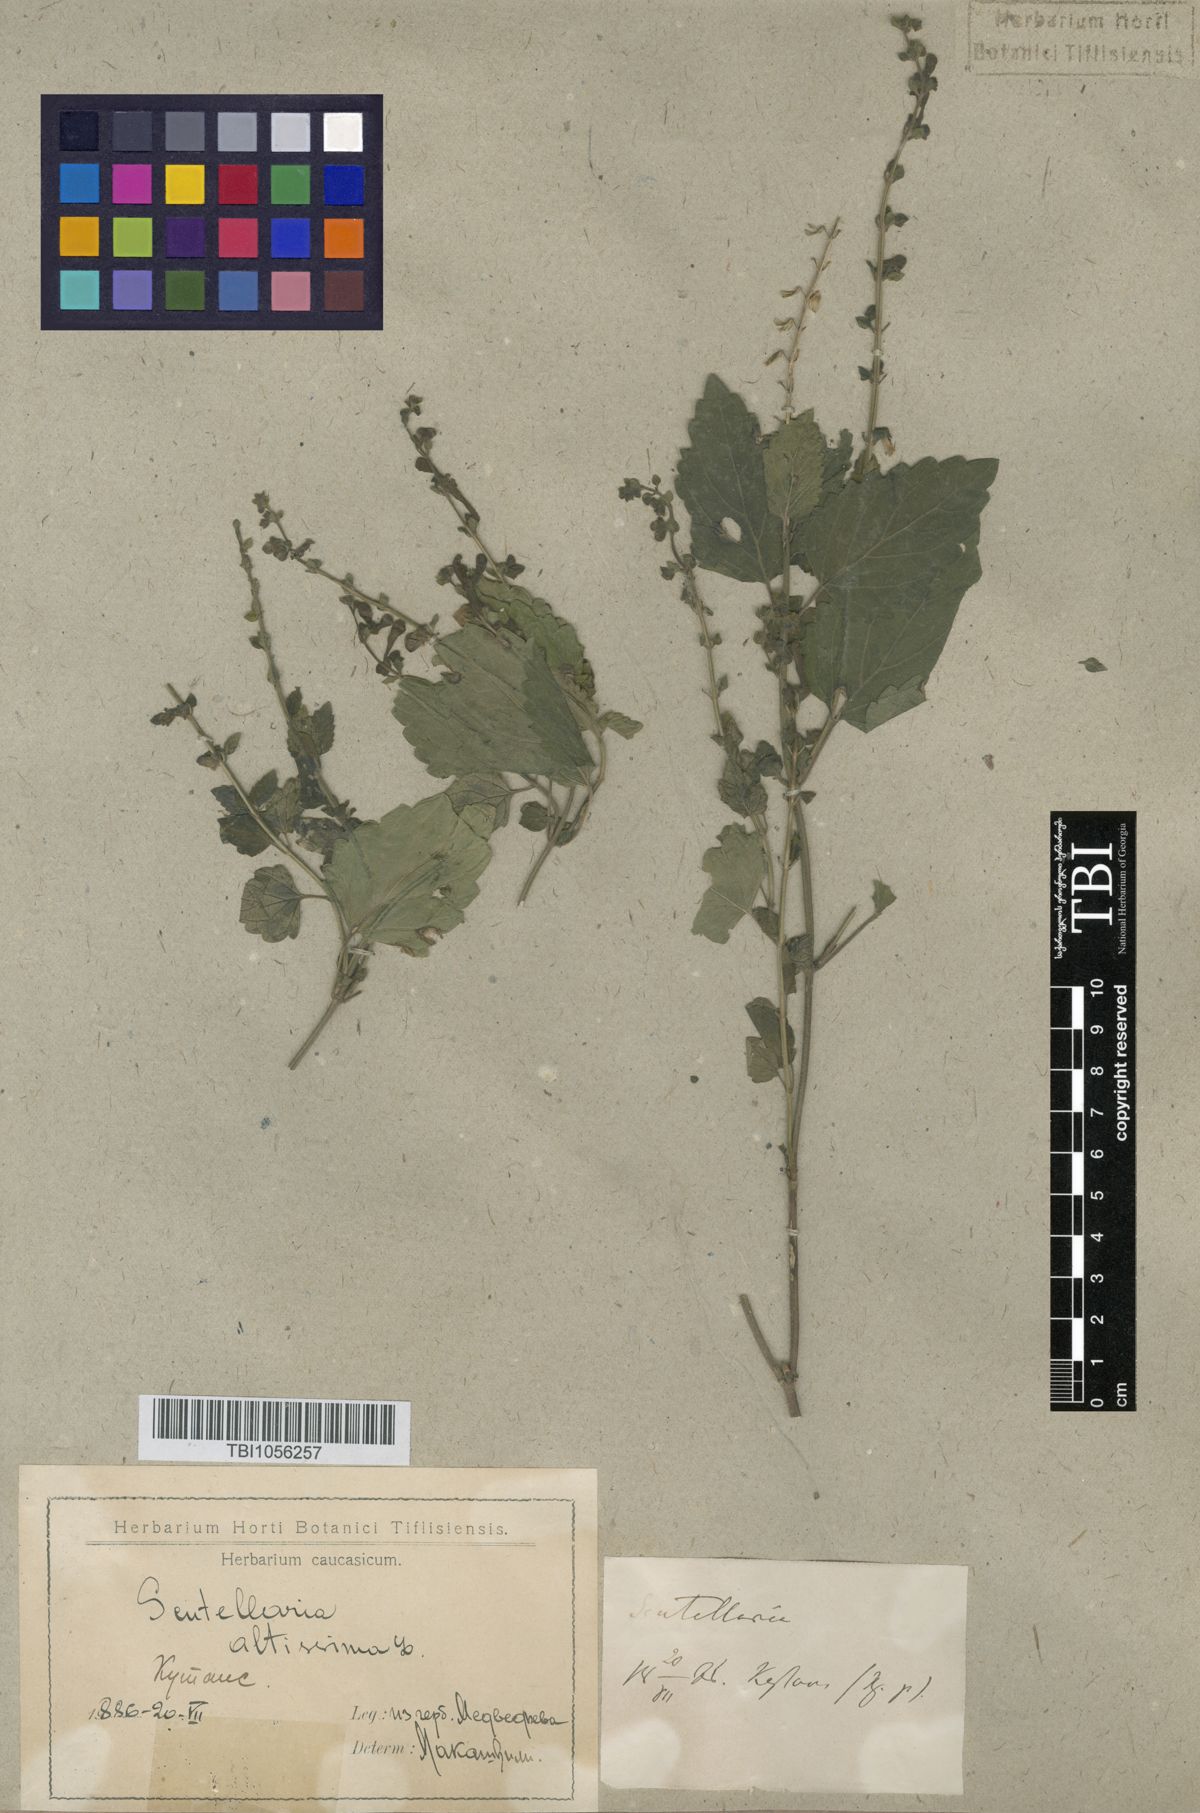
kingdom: Plantae
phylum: Tracheophyta
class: Magnoliopsida
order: Lamiales
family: Lamiaceae
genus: Scutellaria
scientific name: Scutellaria altissima
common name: Somerset skullcap
